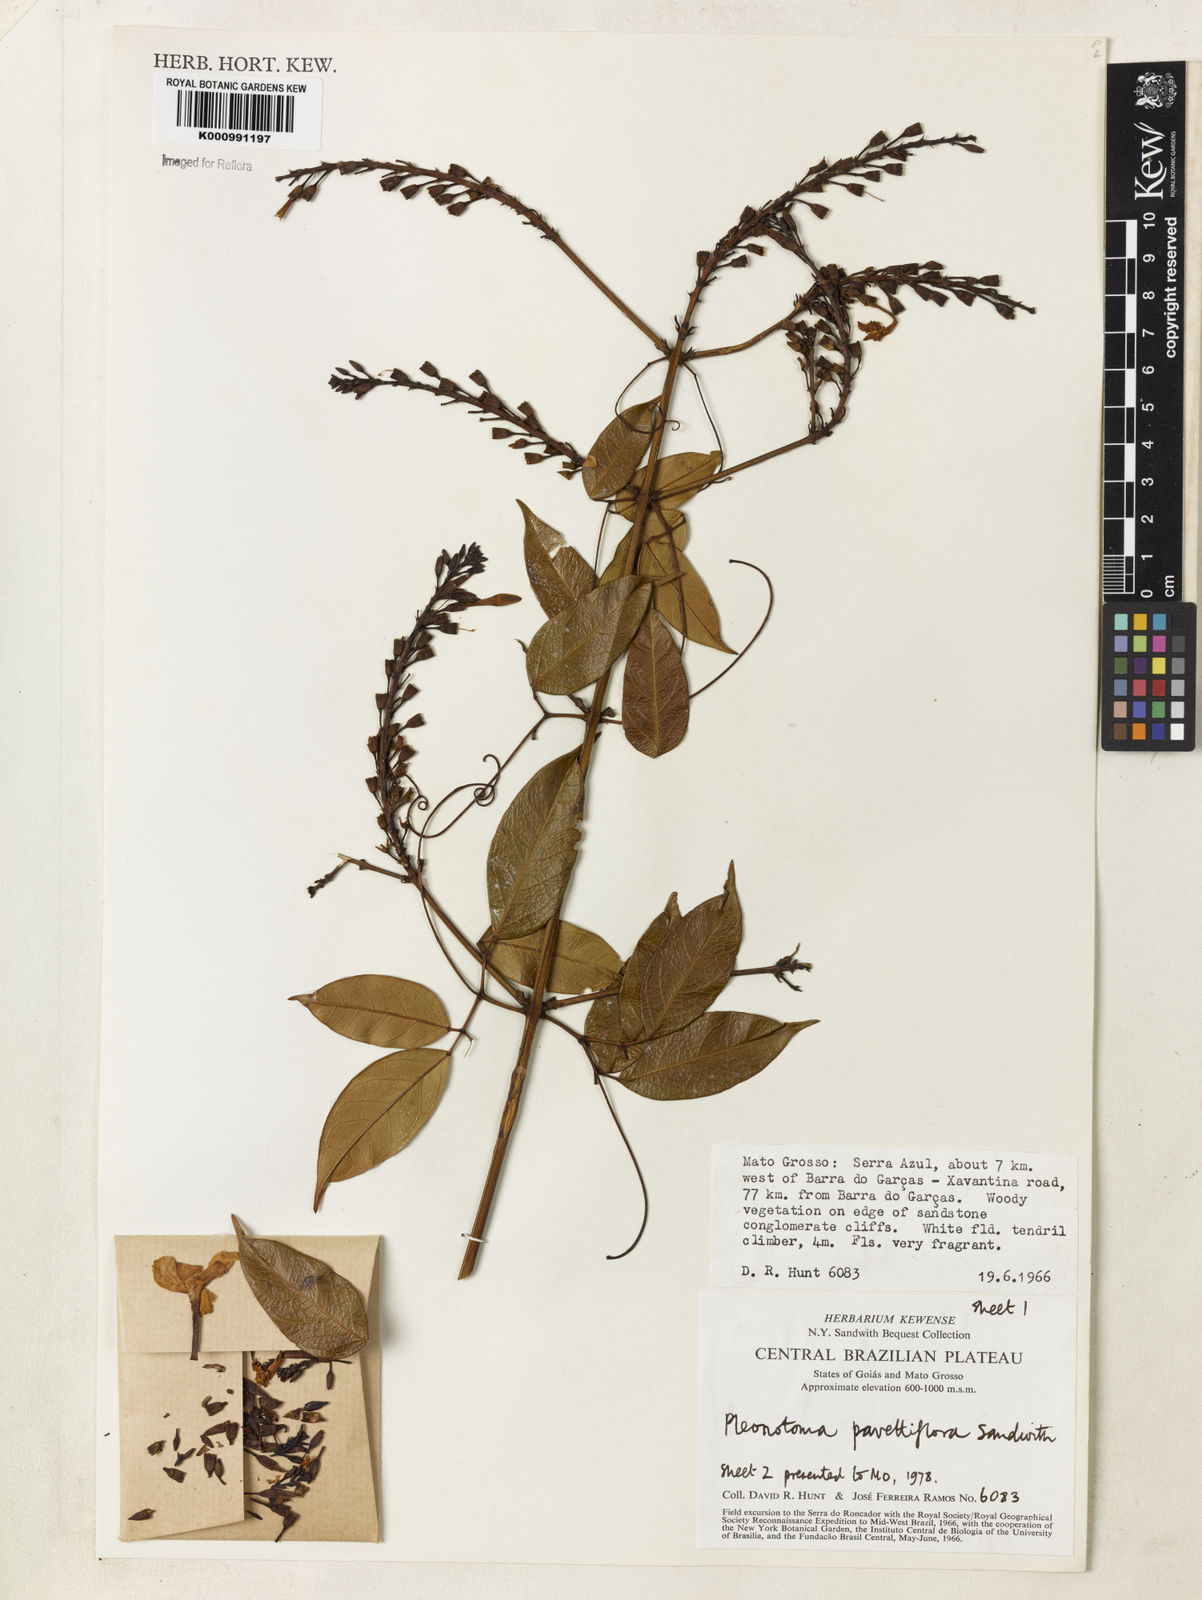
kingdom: Plantae
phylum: Tracheophyta
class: Magnoliopsida
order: Lamiales
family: Bignoniaceae
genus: Pleonotoma
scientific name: Pleonotoma pavettiflora
